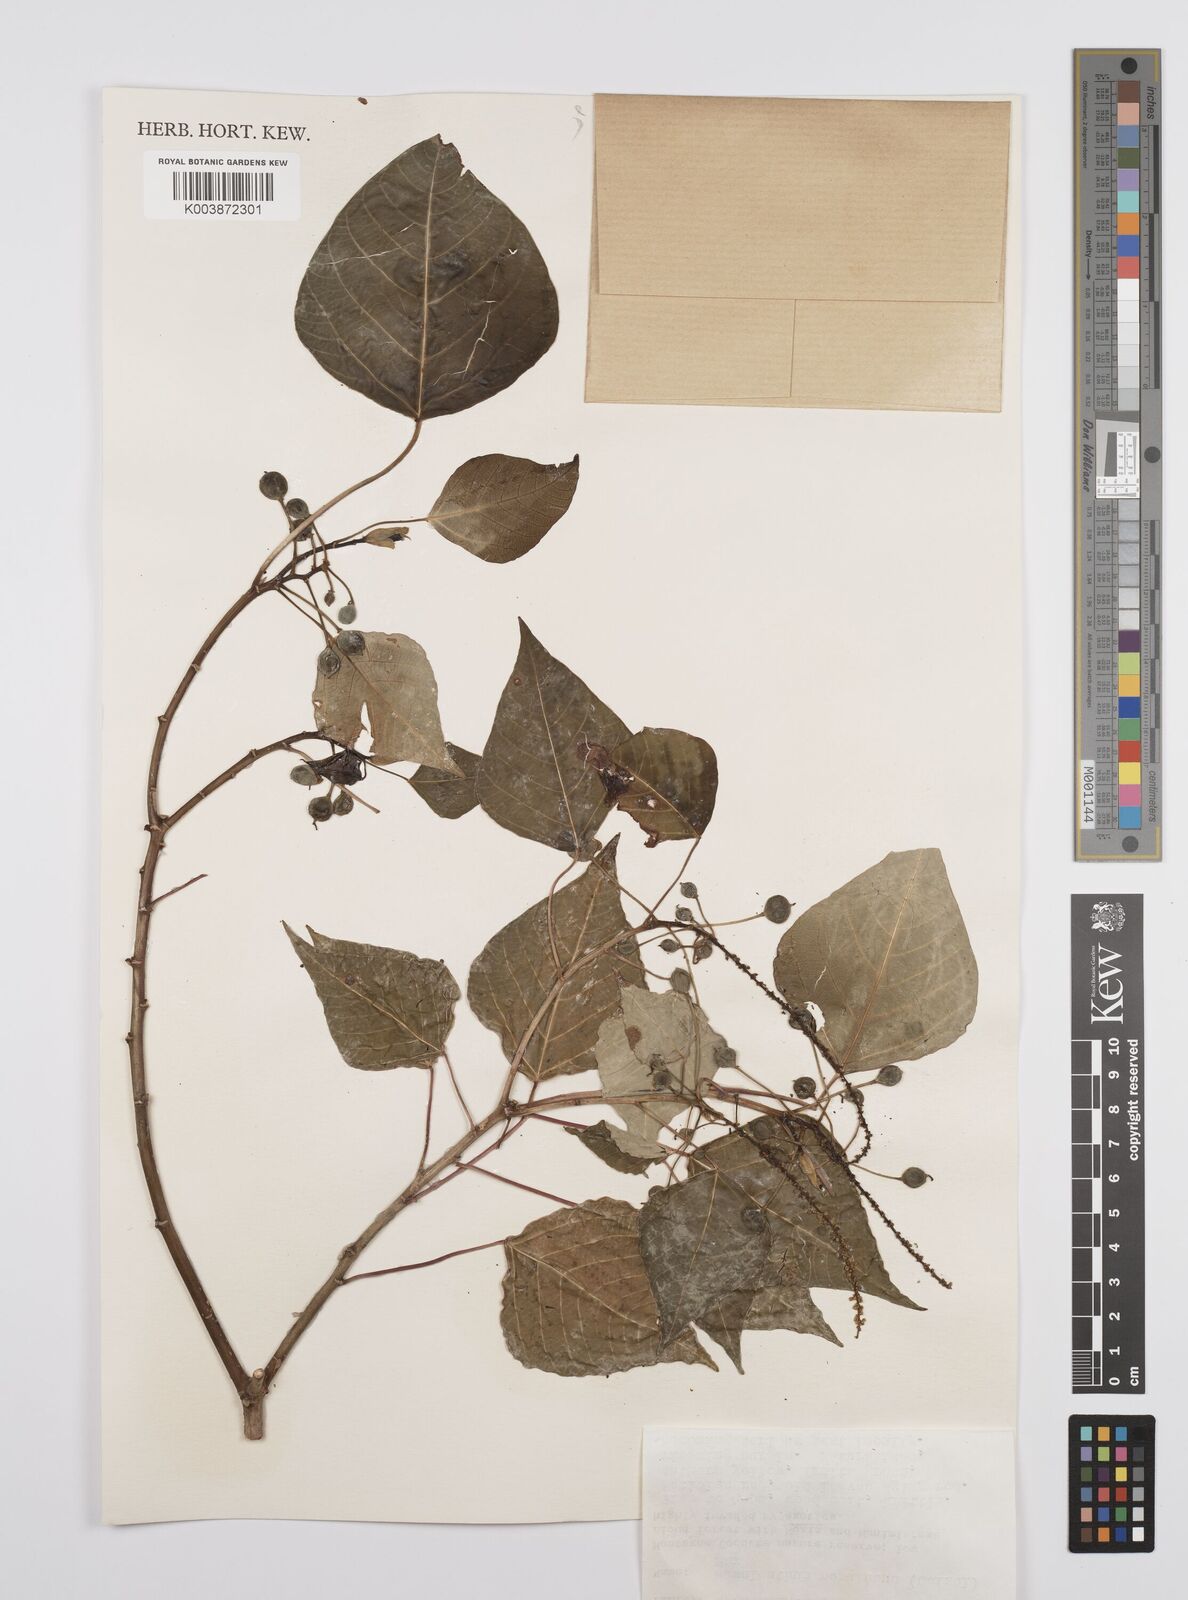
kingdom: Plantae
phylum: Tracheophyta
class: Magnoliopsida
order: Malpighiales
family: Euphorbiaceae
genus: Homalanthus
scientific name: Homalanthus populifolius
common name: Queensland poplar
